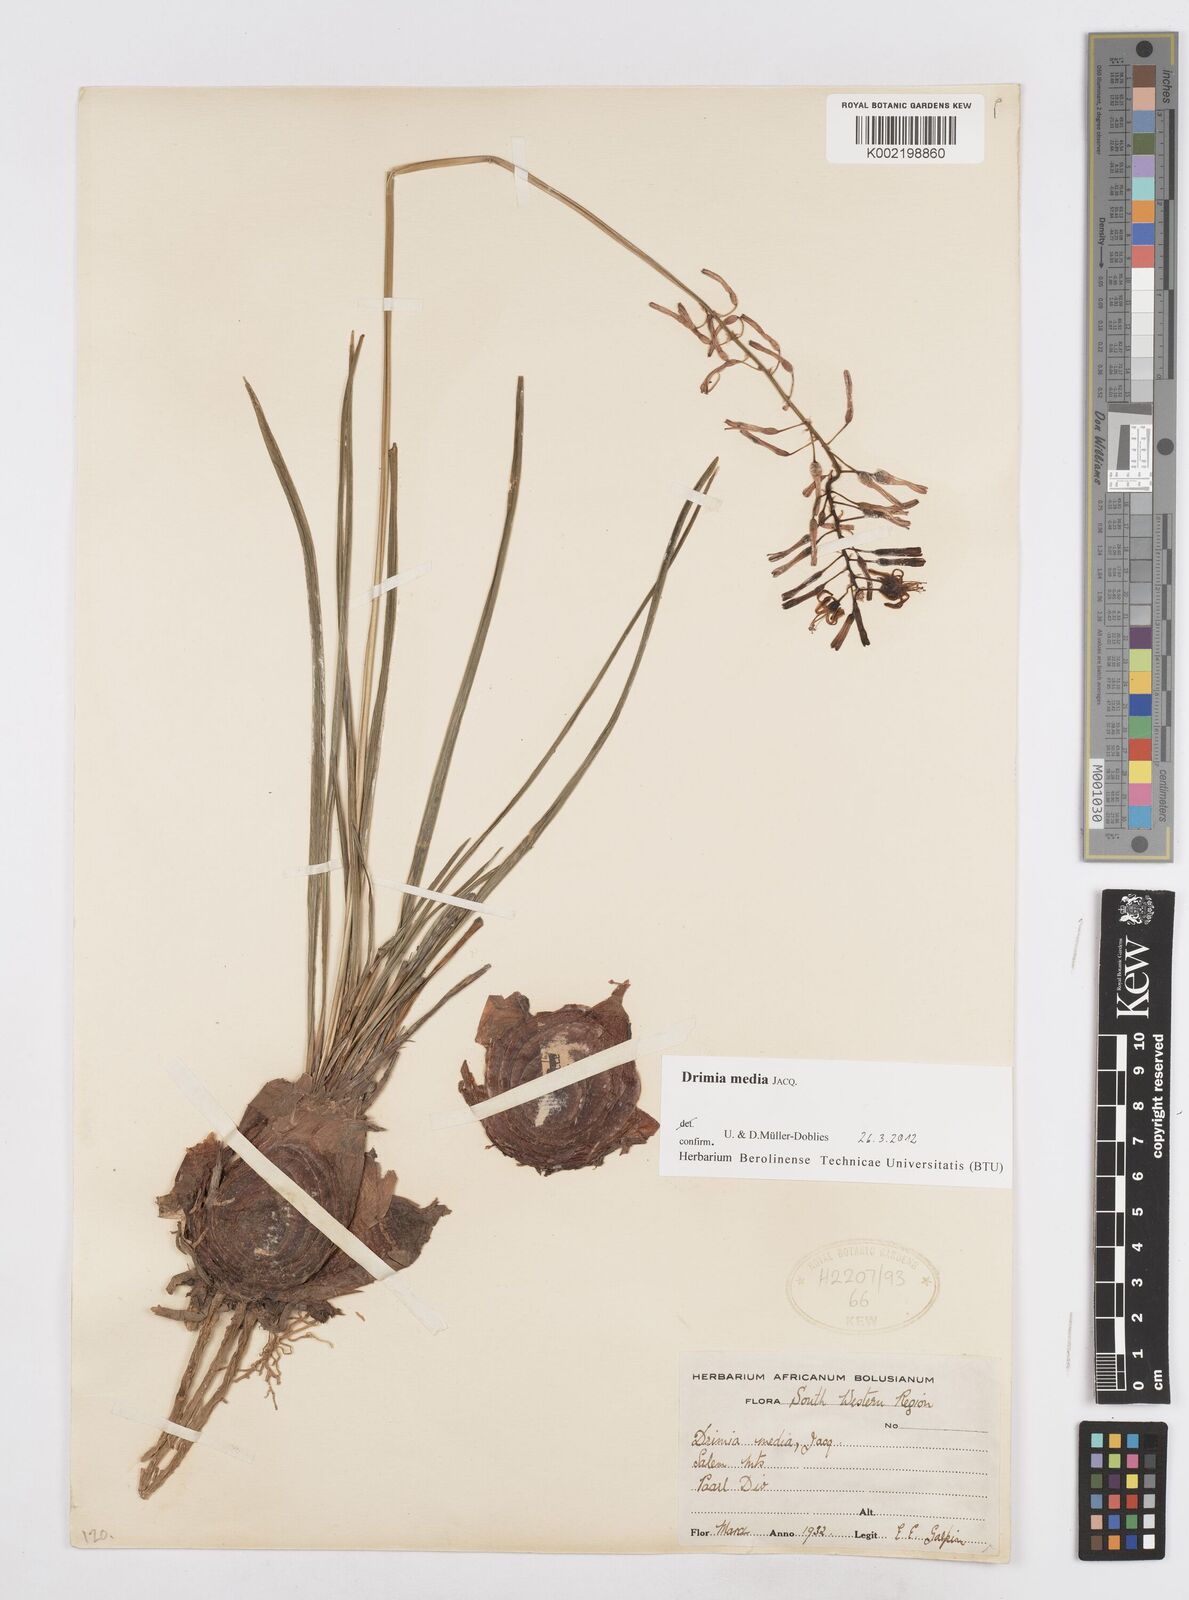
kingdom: Plantae
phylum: Tracheophyta
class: Liliopsida
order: Asparagales
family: Asparagaceae
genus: Drimia
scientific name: Drimia media
